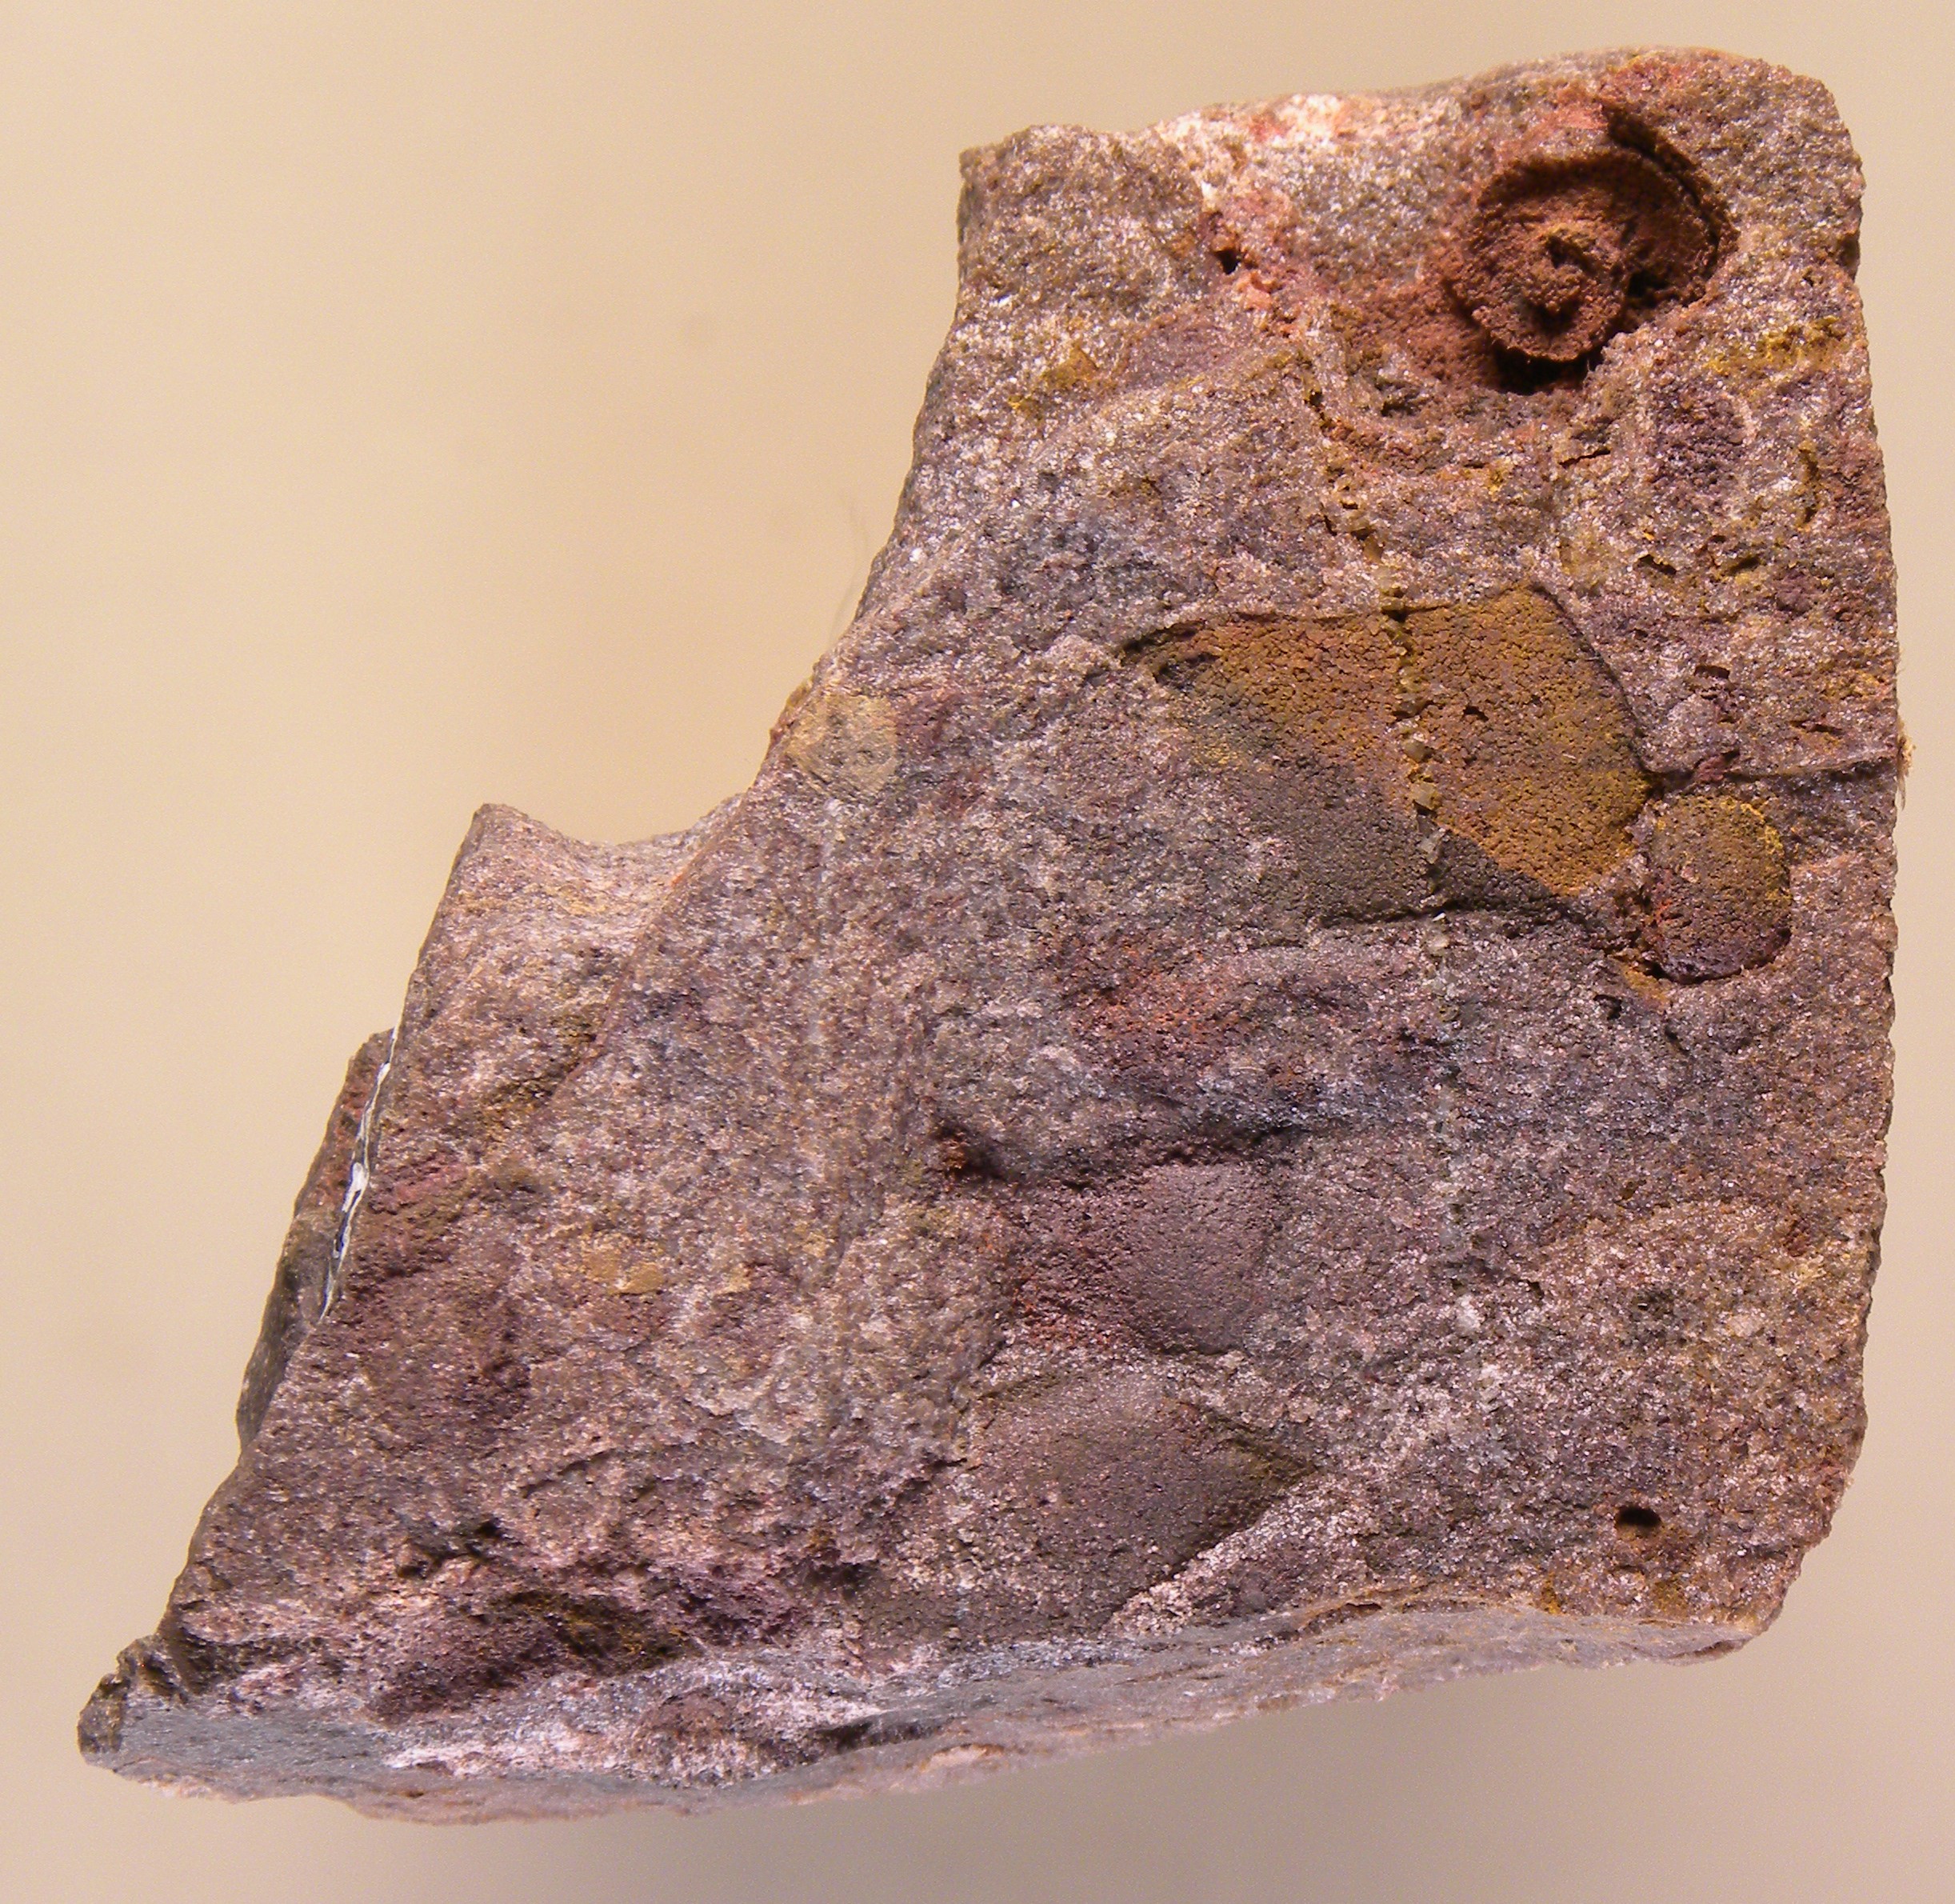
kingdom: Animalia
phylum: Mollusca
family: Tropidodiscidae
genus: Tropidodiscus
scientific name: Tropidodiscus
